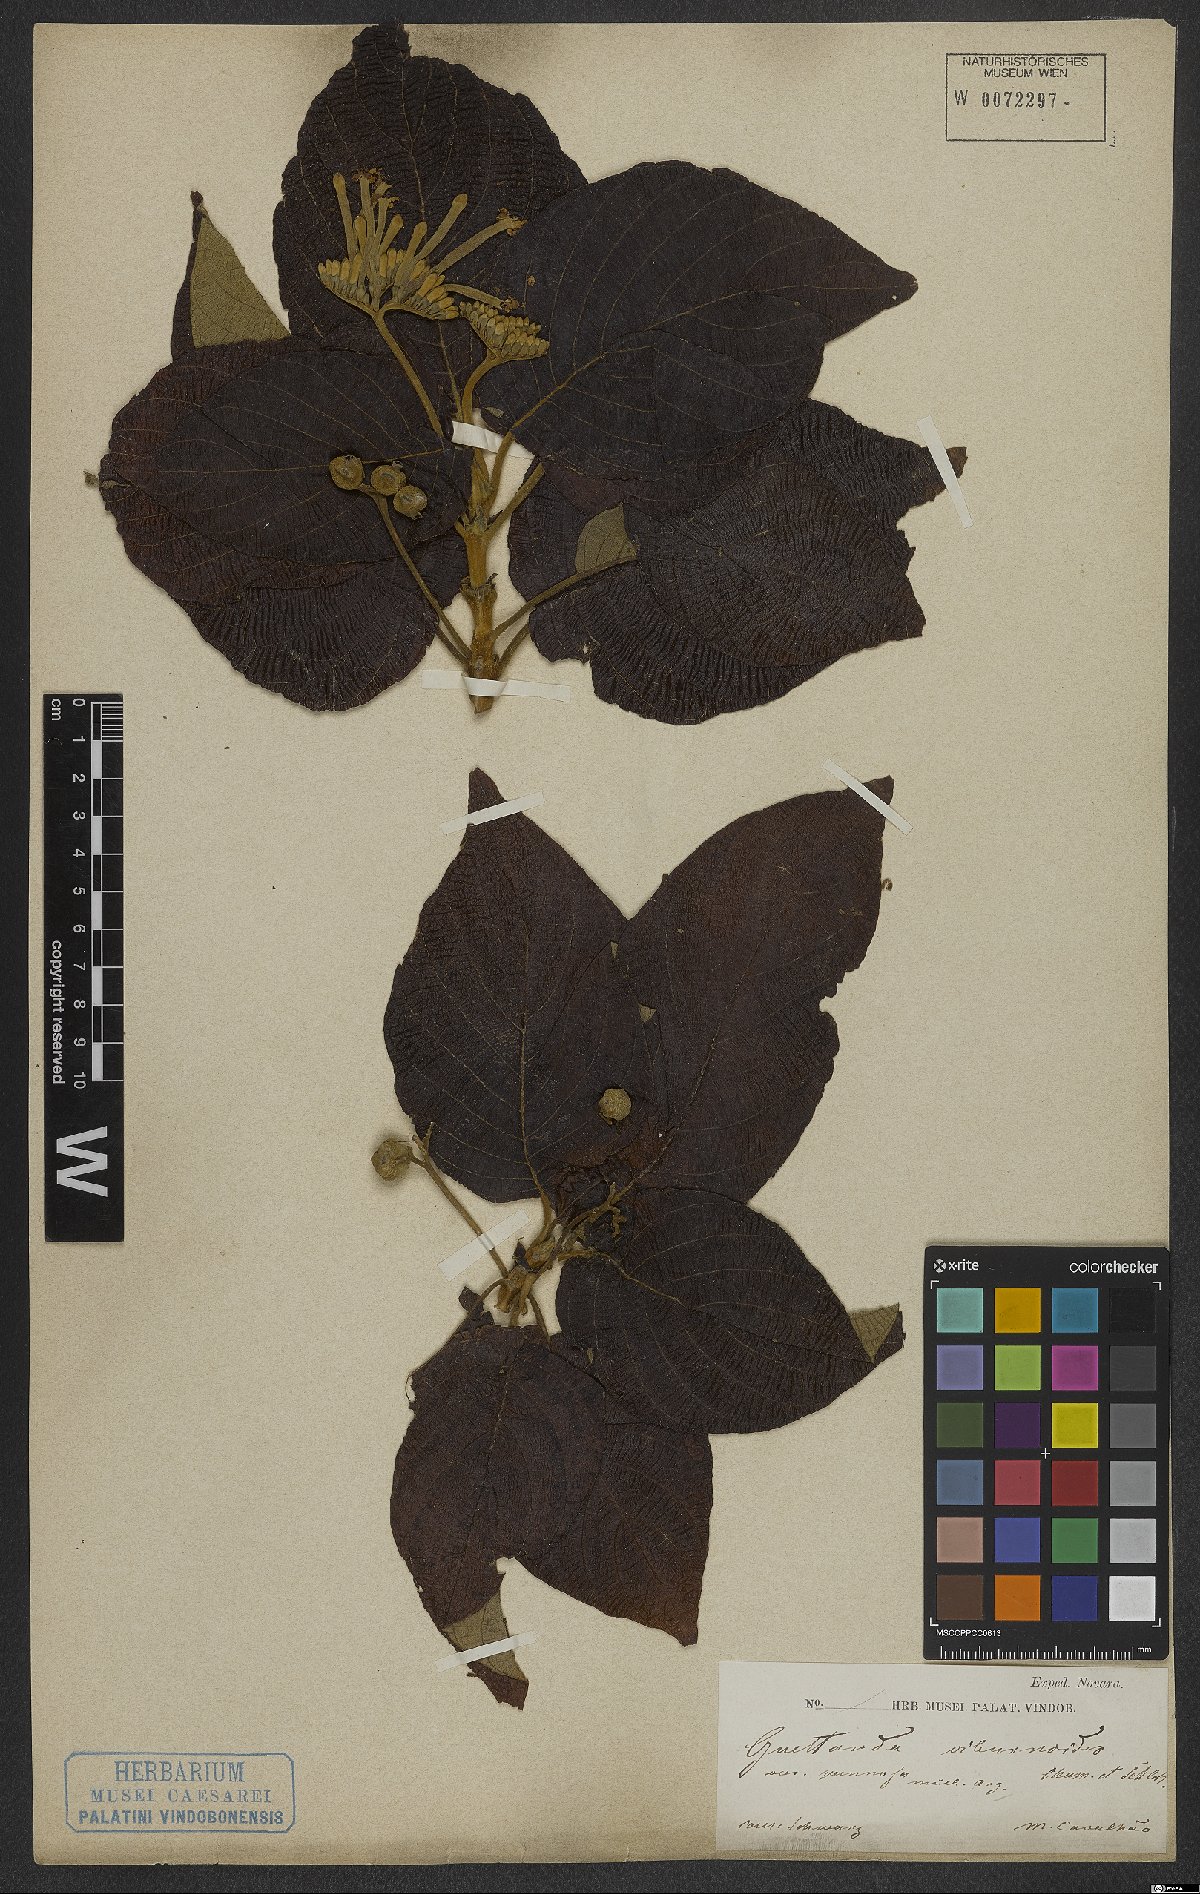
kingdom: Plantae
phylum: Tracheophyta
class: Magnoliopsida
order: Gentianales
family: Rubiaceae
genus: Guettarda
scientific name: Guettarda viburnoides
